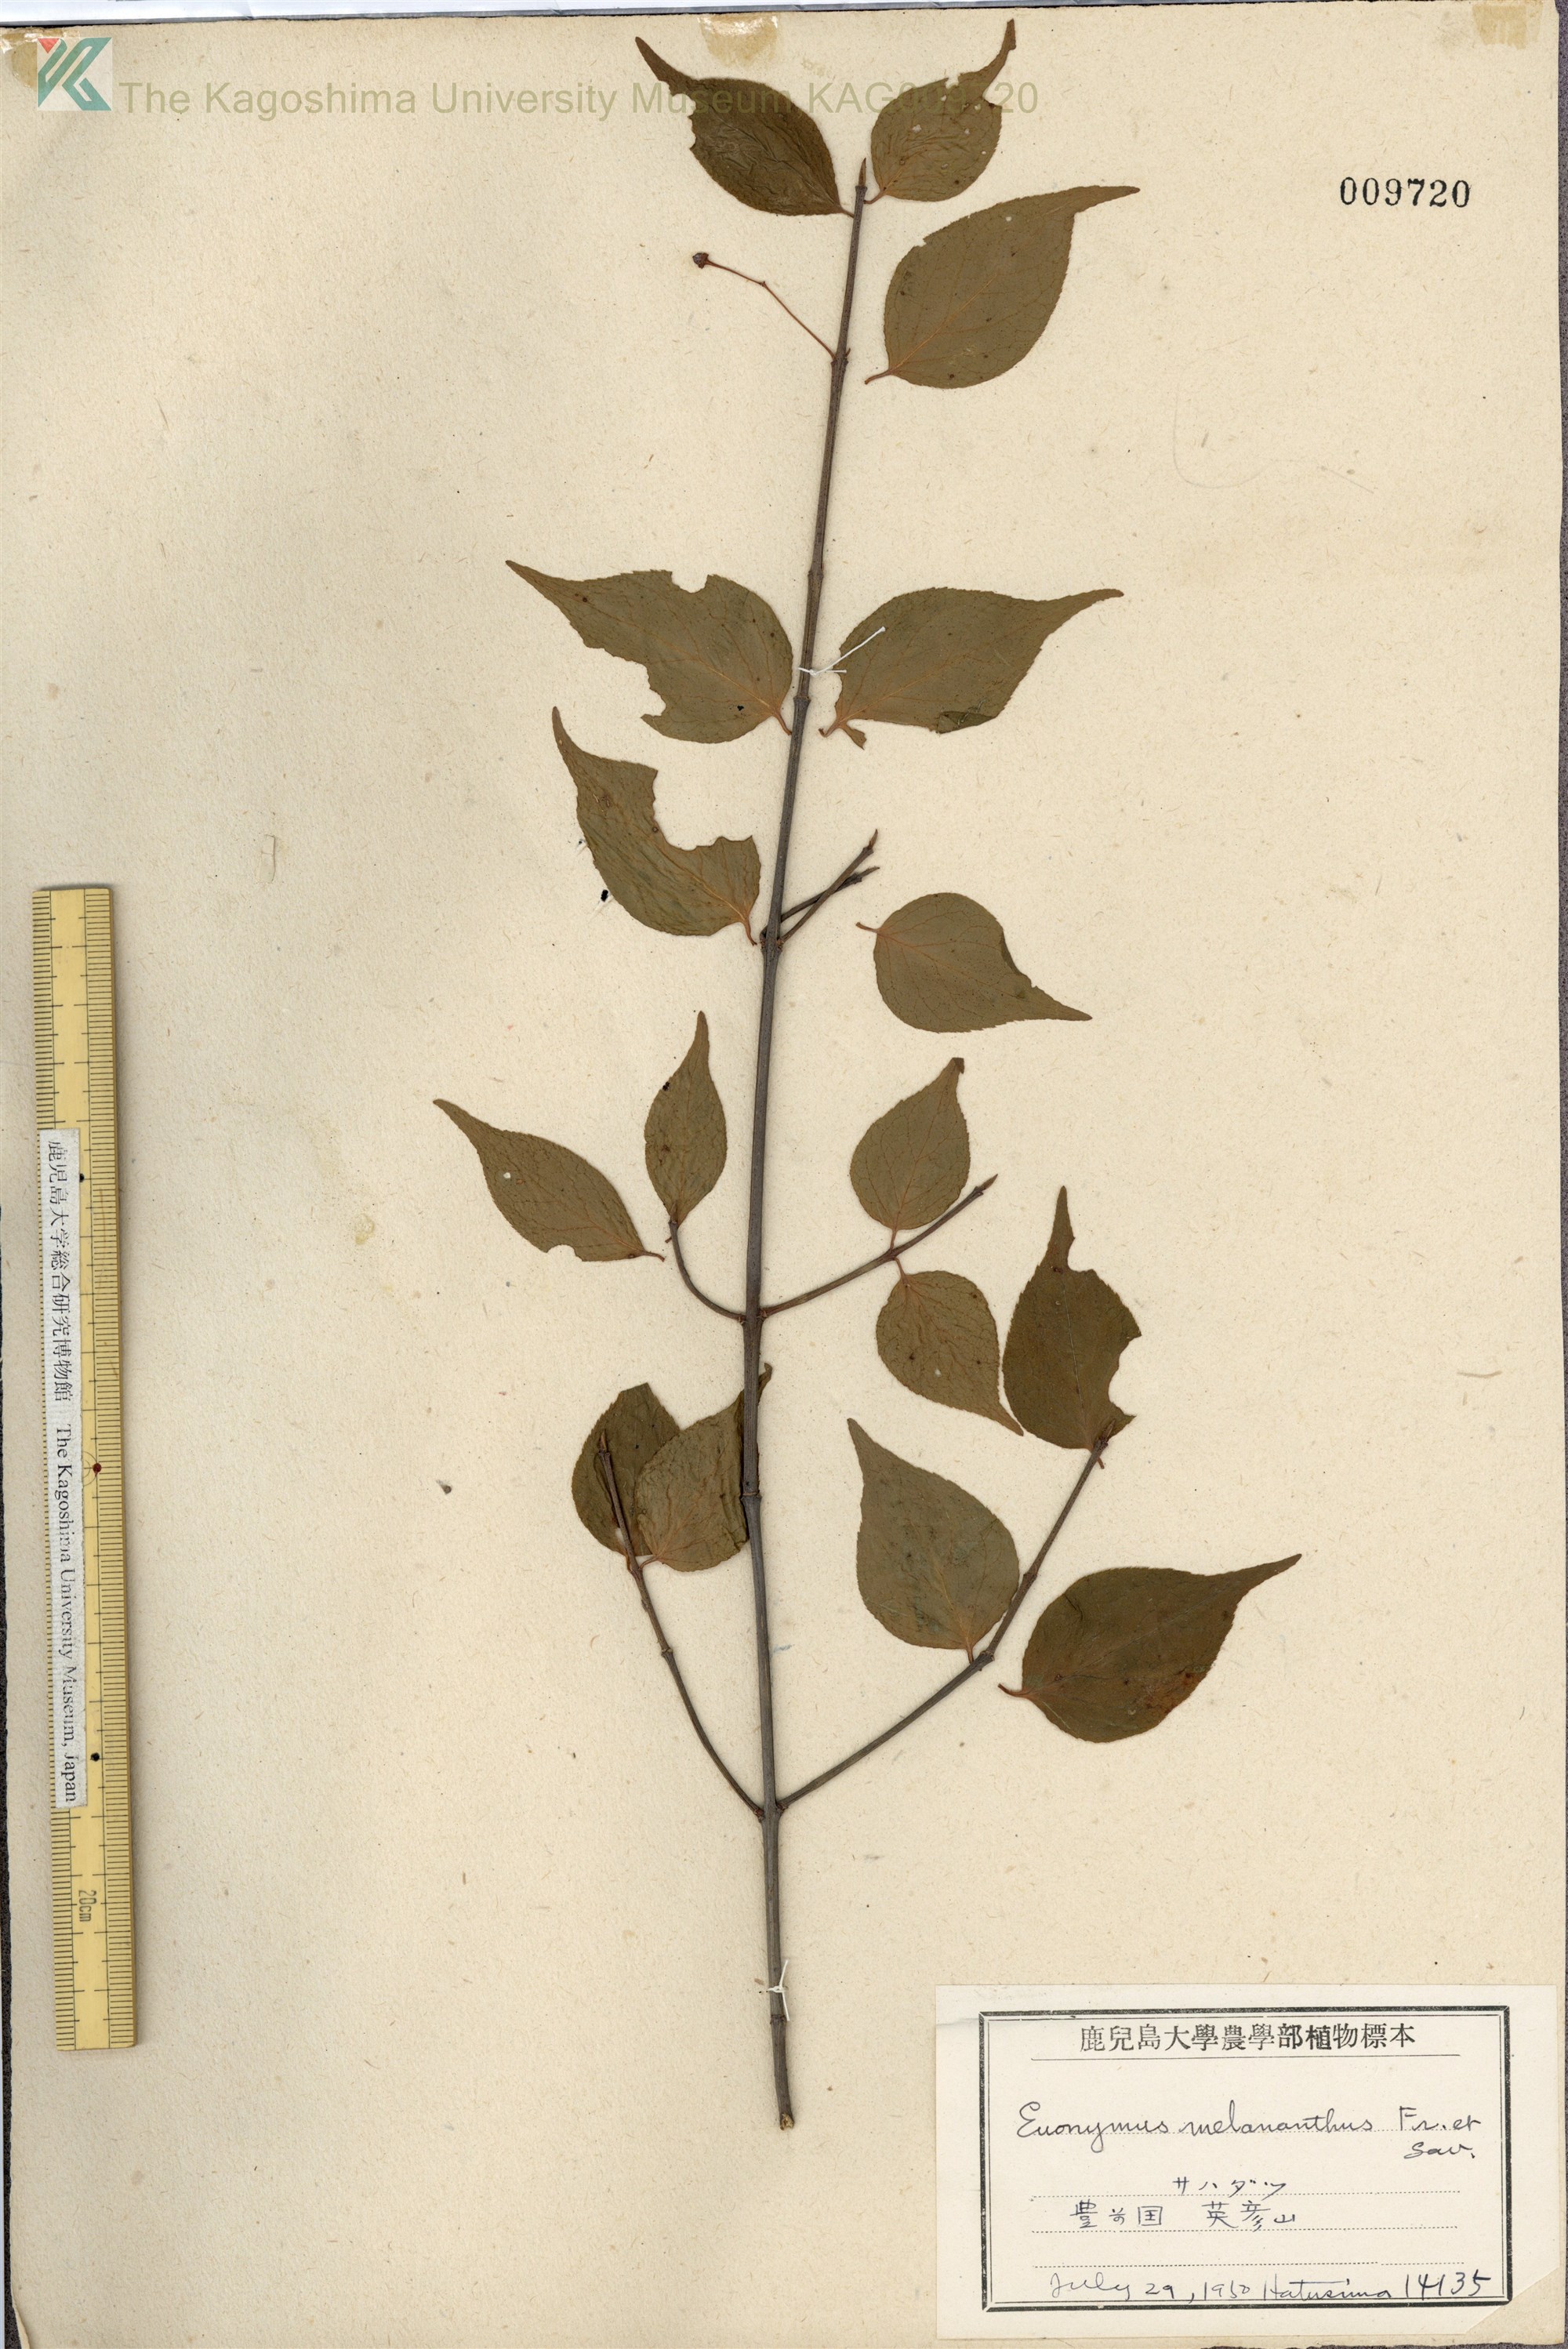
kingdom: Plantae
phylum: Tracheophyta
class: Magnoliopsida
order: Celastrales
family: Celastraceae
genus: Euonymus
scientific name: Euonymus melananthus
